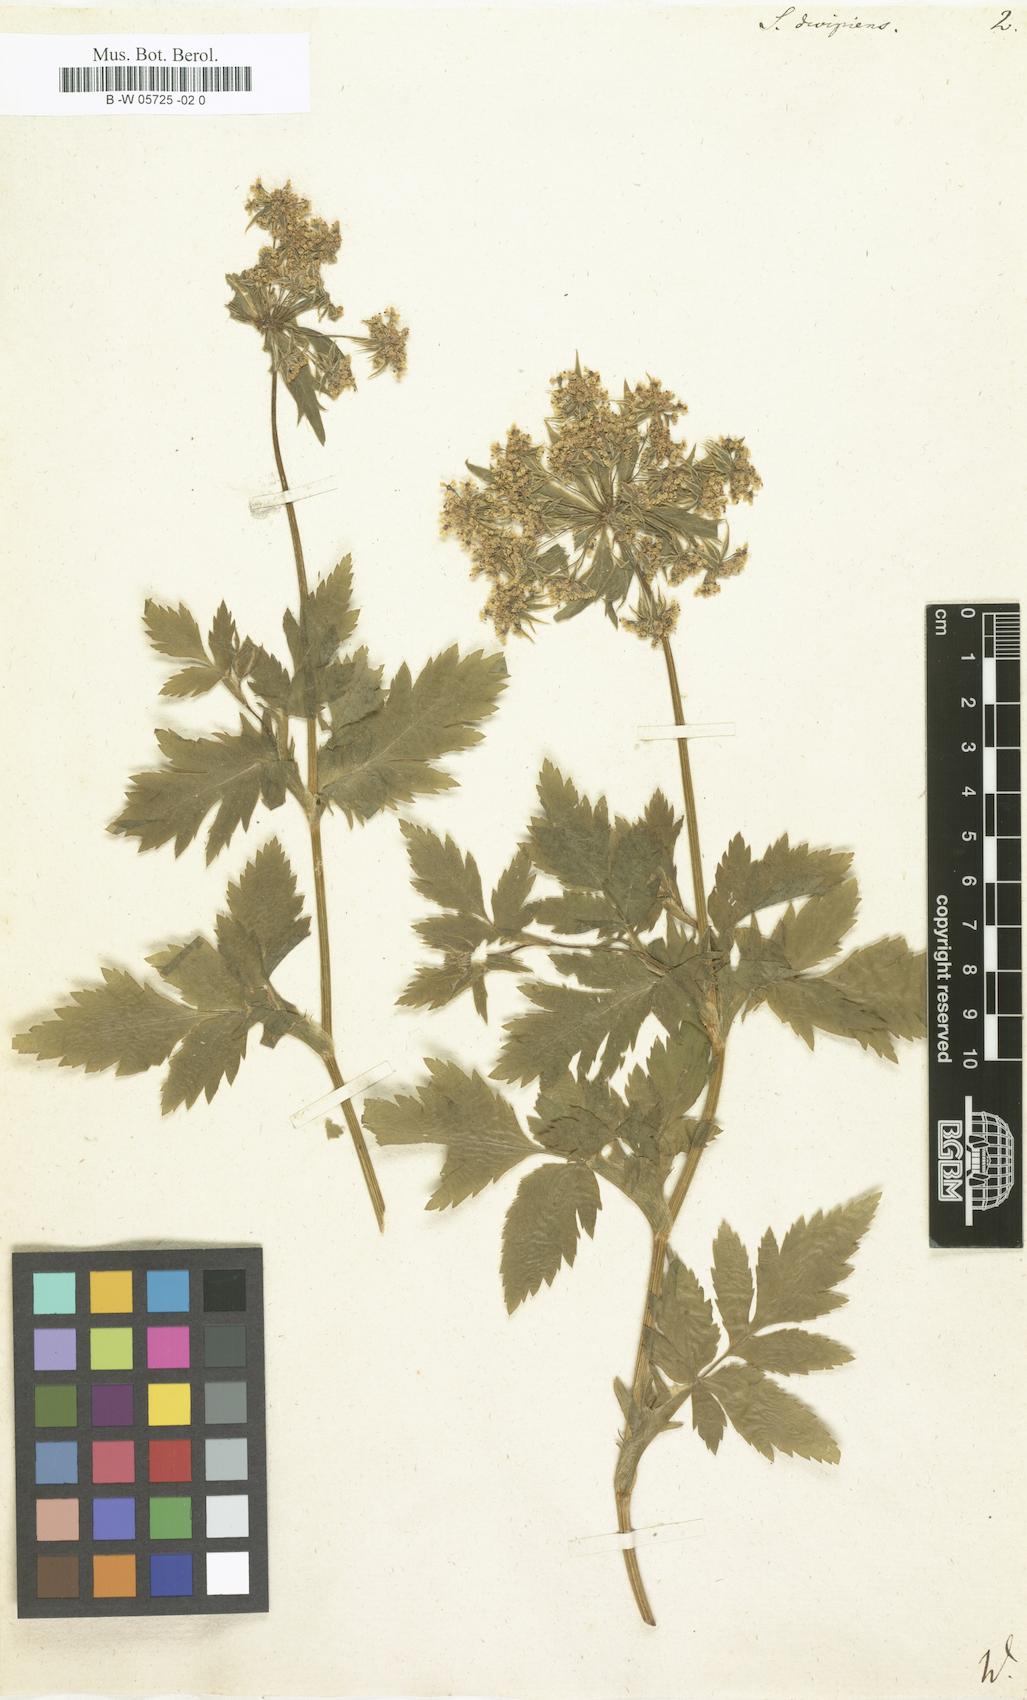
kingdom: Plantae
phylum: Tracheophyta
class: Magnoliopsida
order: Apiales
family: Apiaceae
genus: Daucus
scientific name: Daucus decipiens
